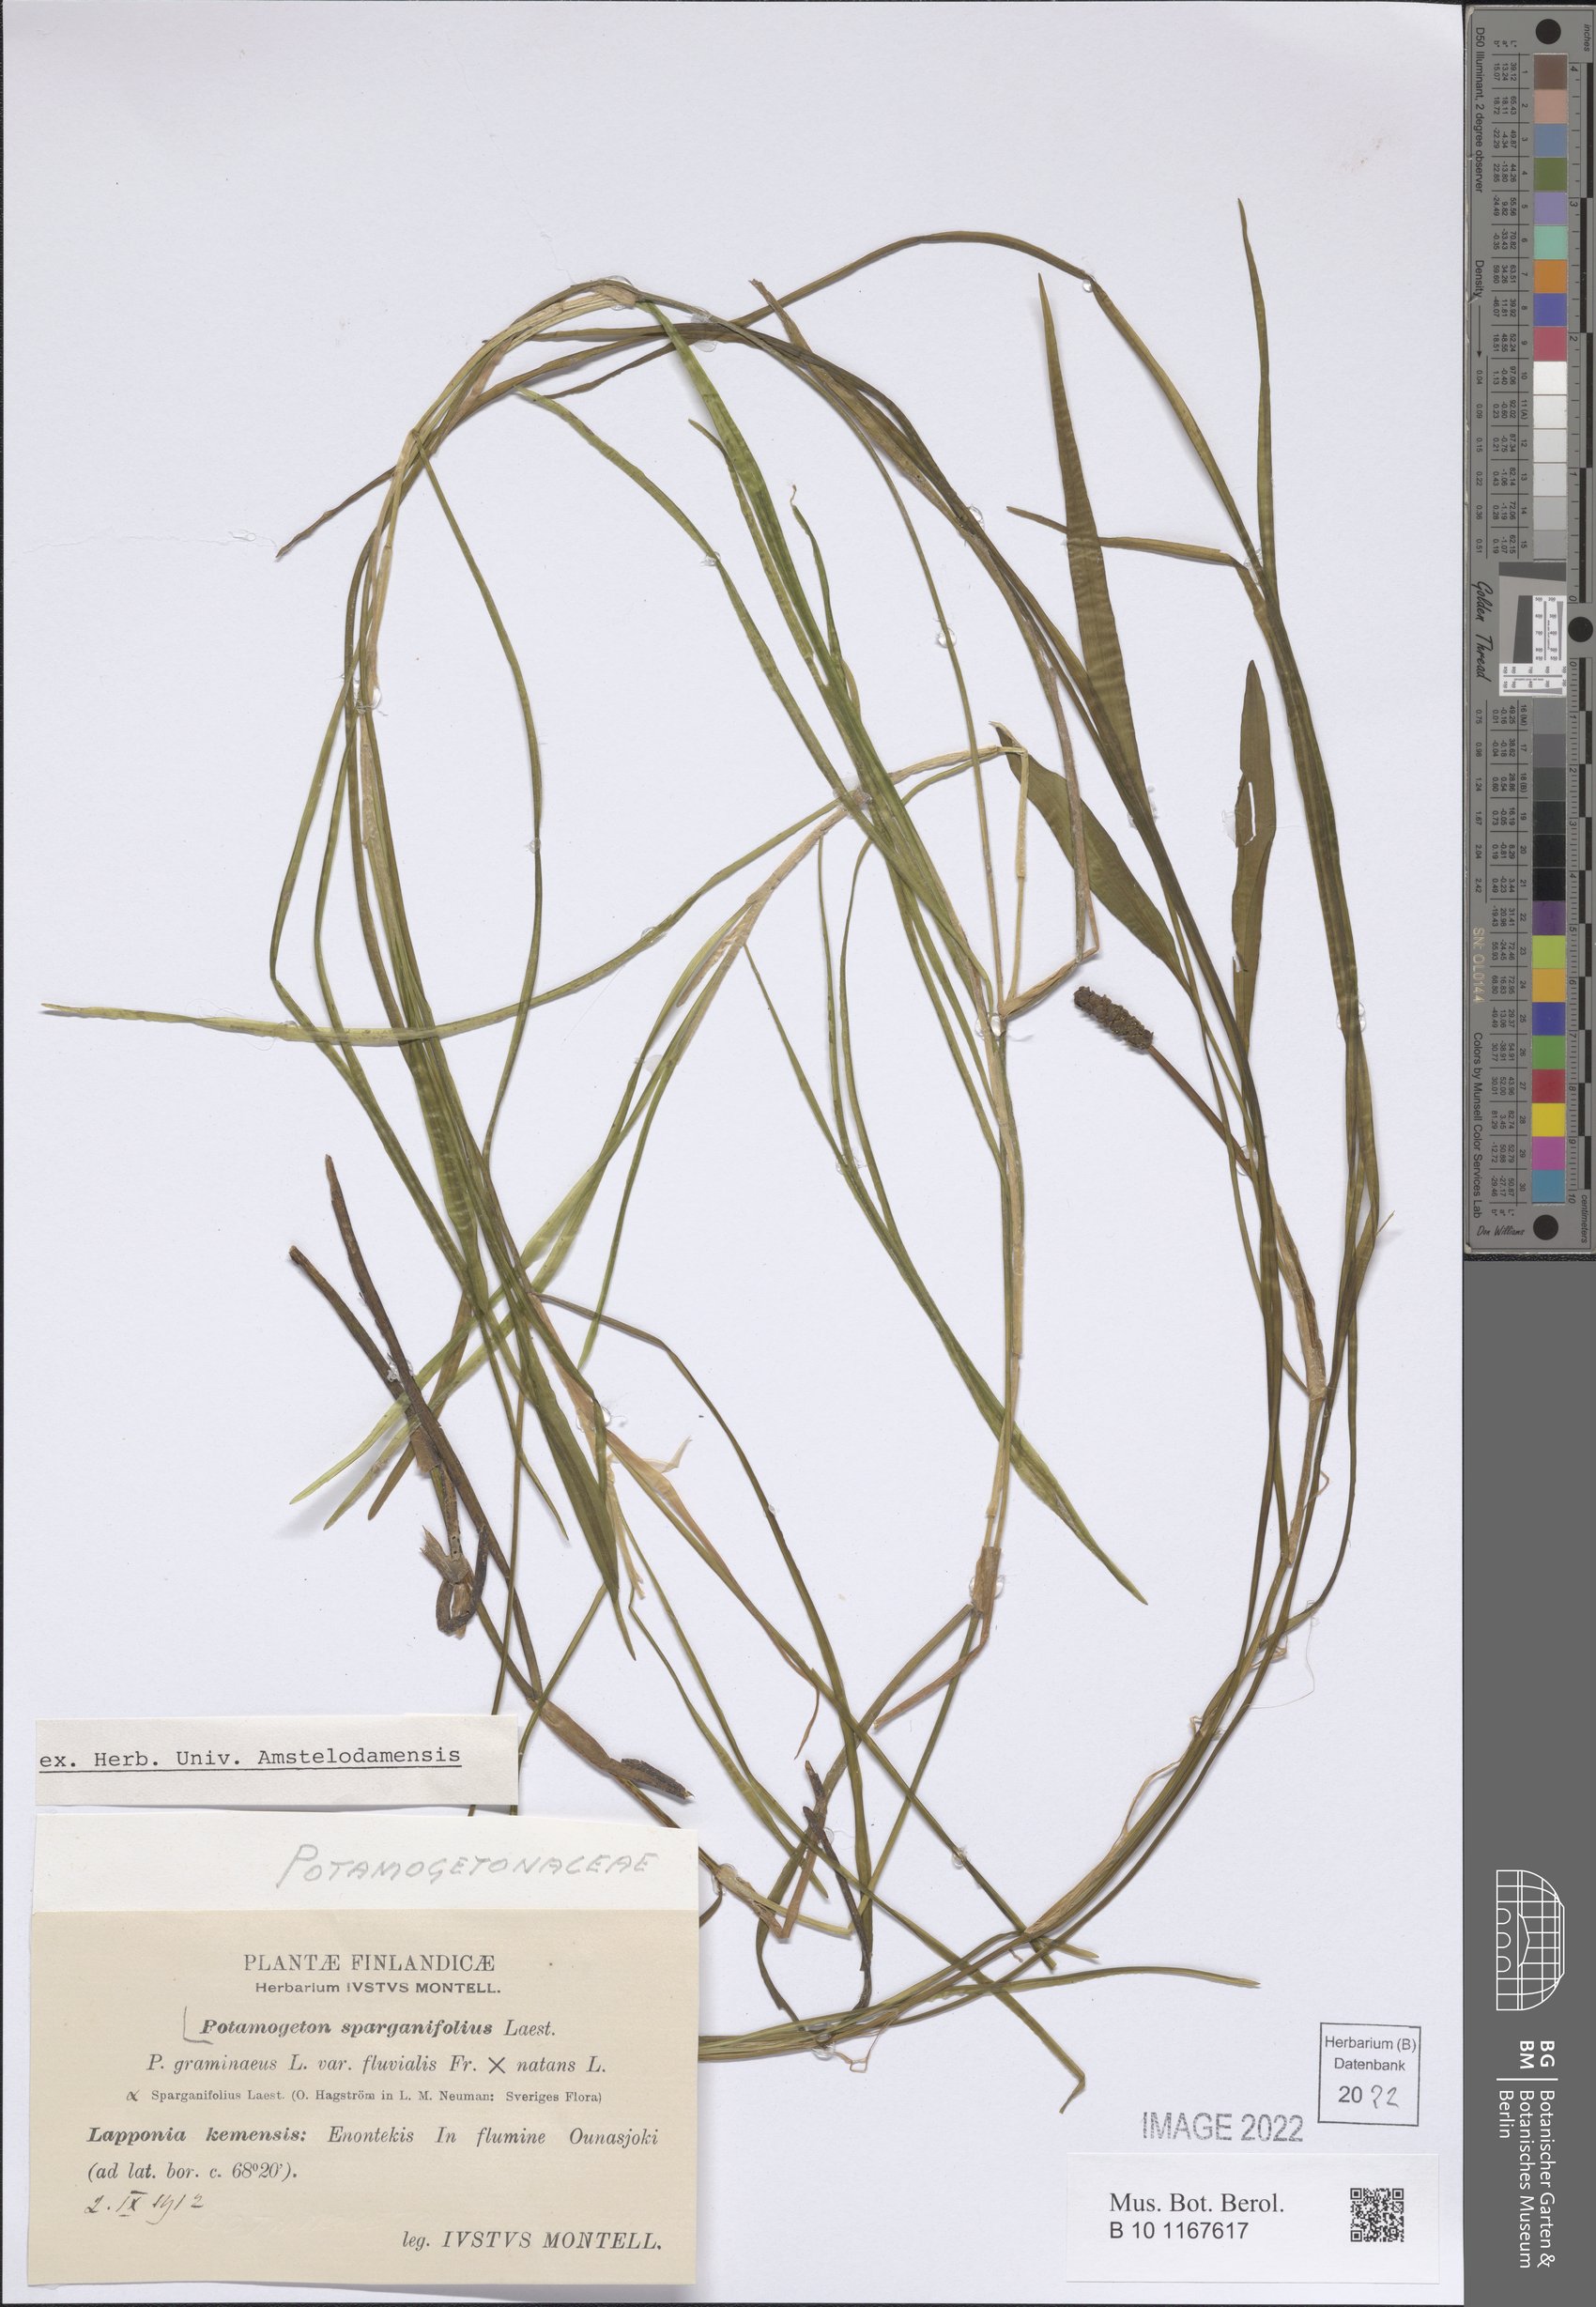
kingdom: Plantae
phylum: Tracheophyta
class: Liliopsida
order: Alismatales
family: Potamogetonaceae
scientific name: Potamogetonaceae
